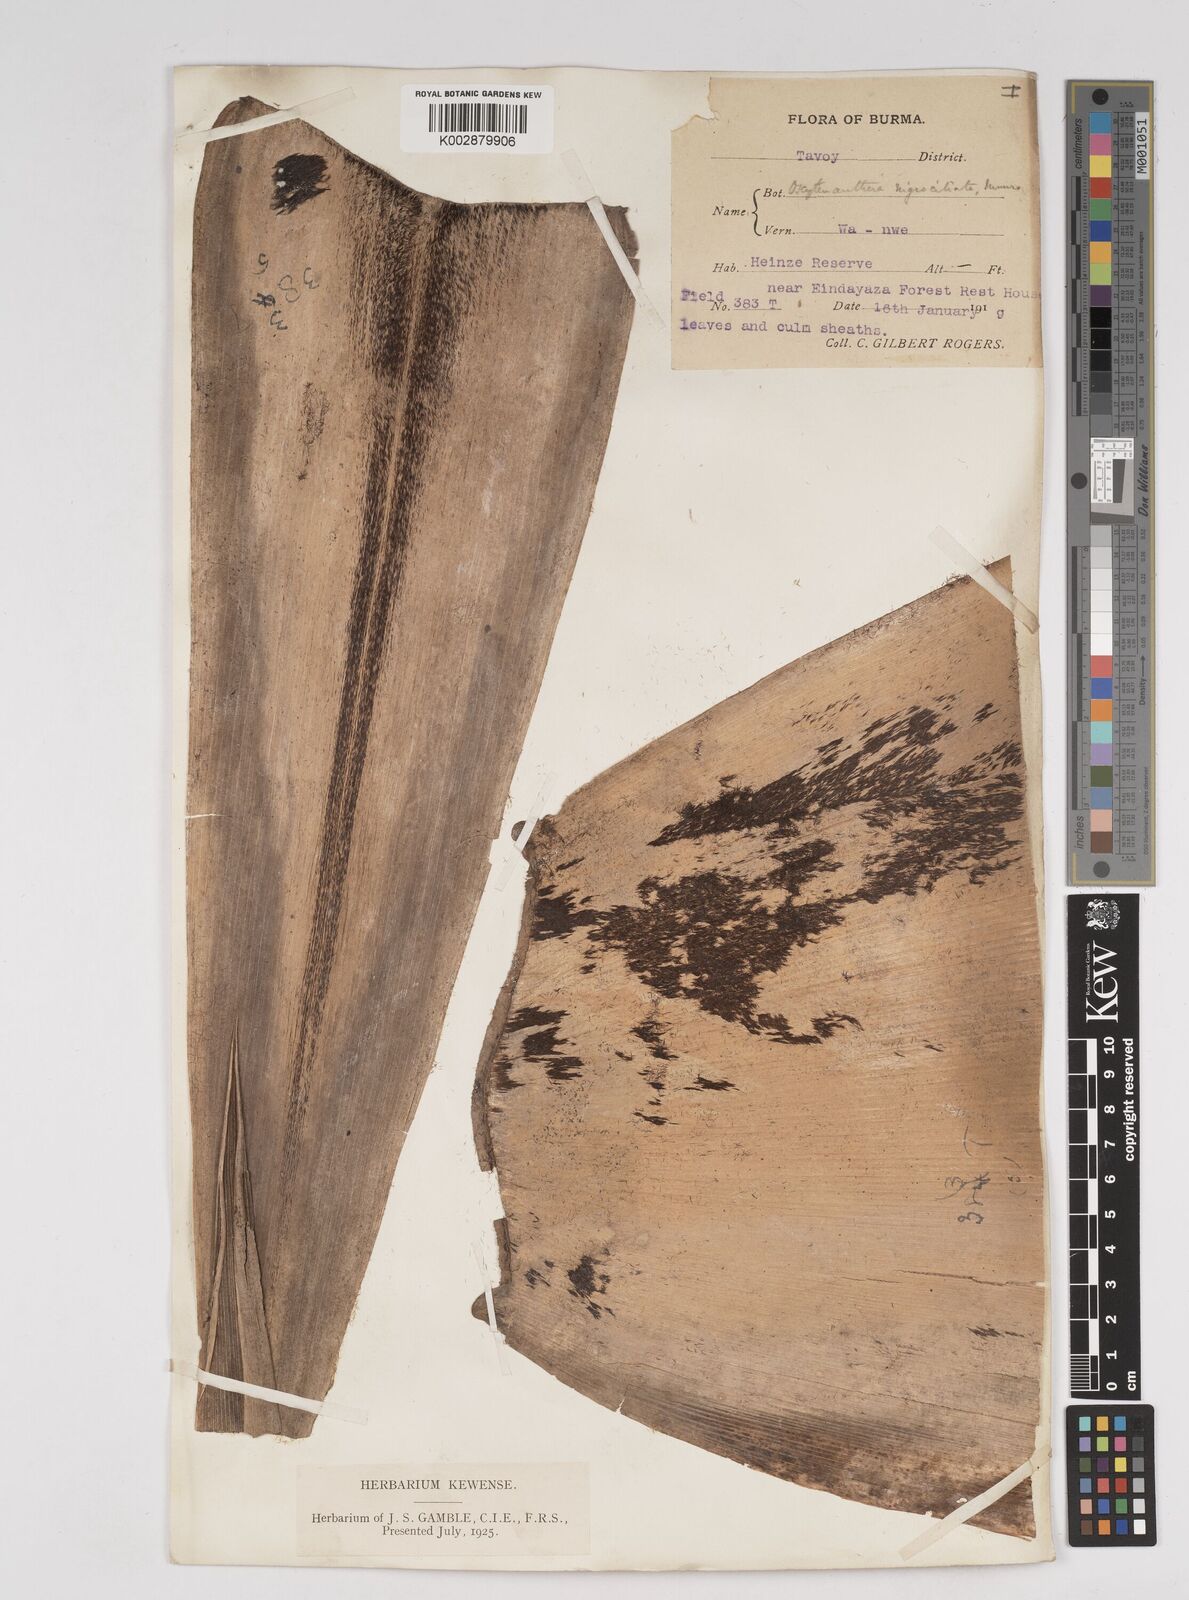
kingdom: Plantae
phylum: Tracheophyta
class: Liliopsida
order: Poales
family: Poaceae
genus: Gigantochloa
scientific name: Gigantochloa nigrociliata
